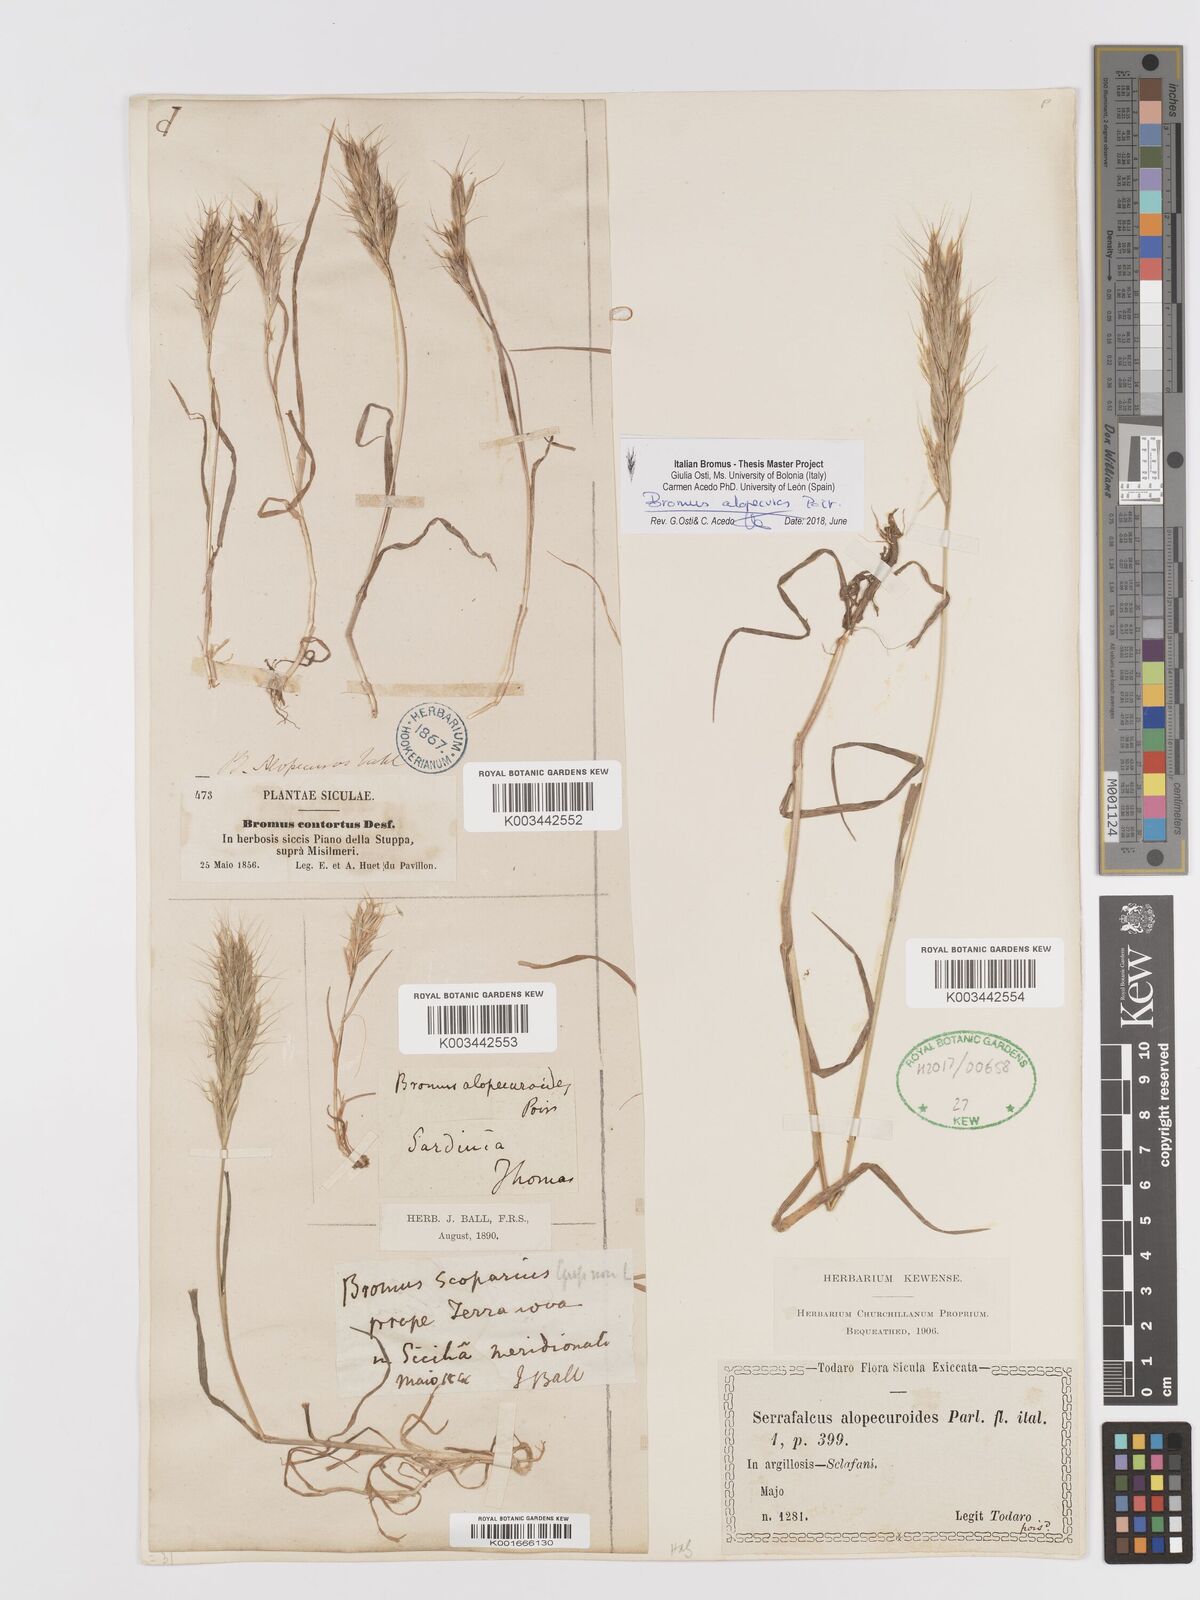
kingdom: Plantae
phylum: Tracheophyta
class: Liliopsida
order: Poales
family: Poaceae
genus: Bromus
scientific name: Bromus alopecuros
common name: Weedy brome
